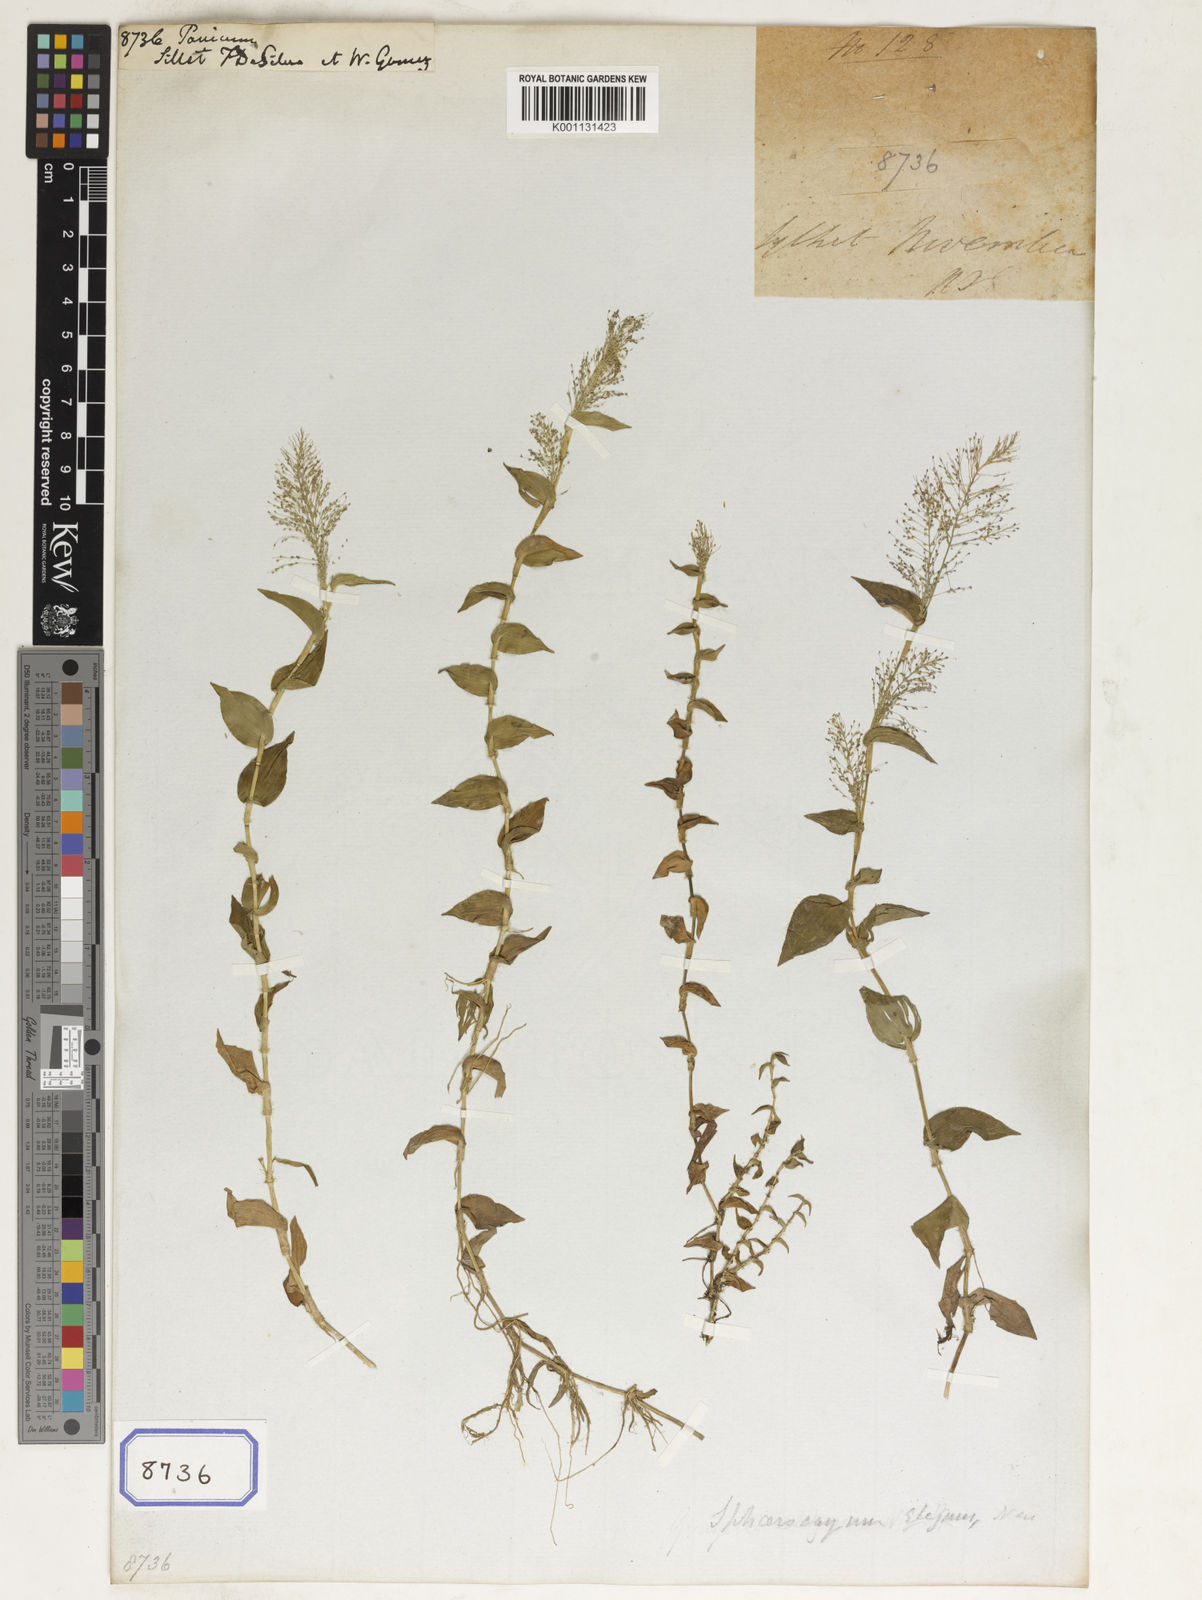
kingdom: Plantae
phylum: Tracheophyta
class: Liliopsida
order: Poales
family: Poaceae
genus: Panicum
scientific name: Panicum
